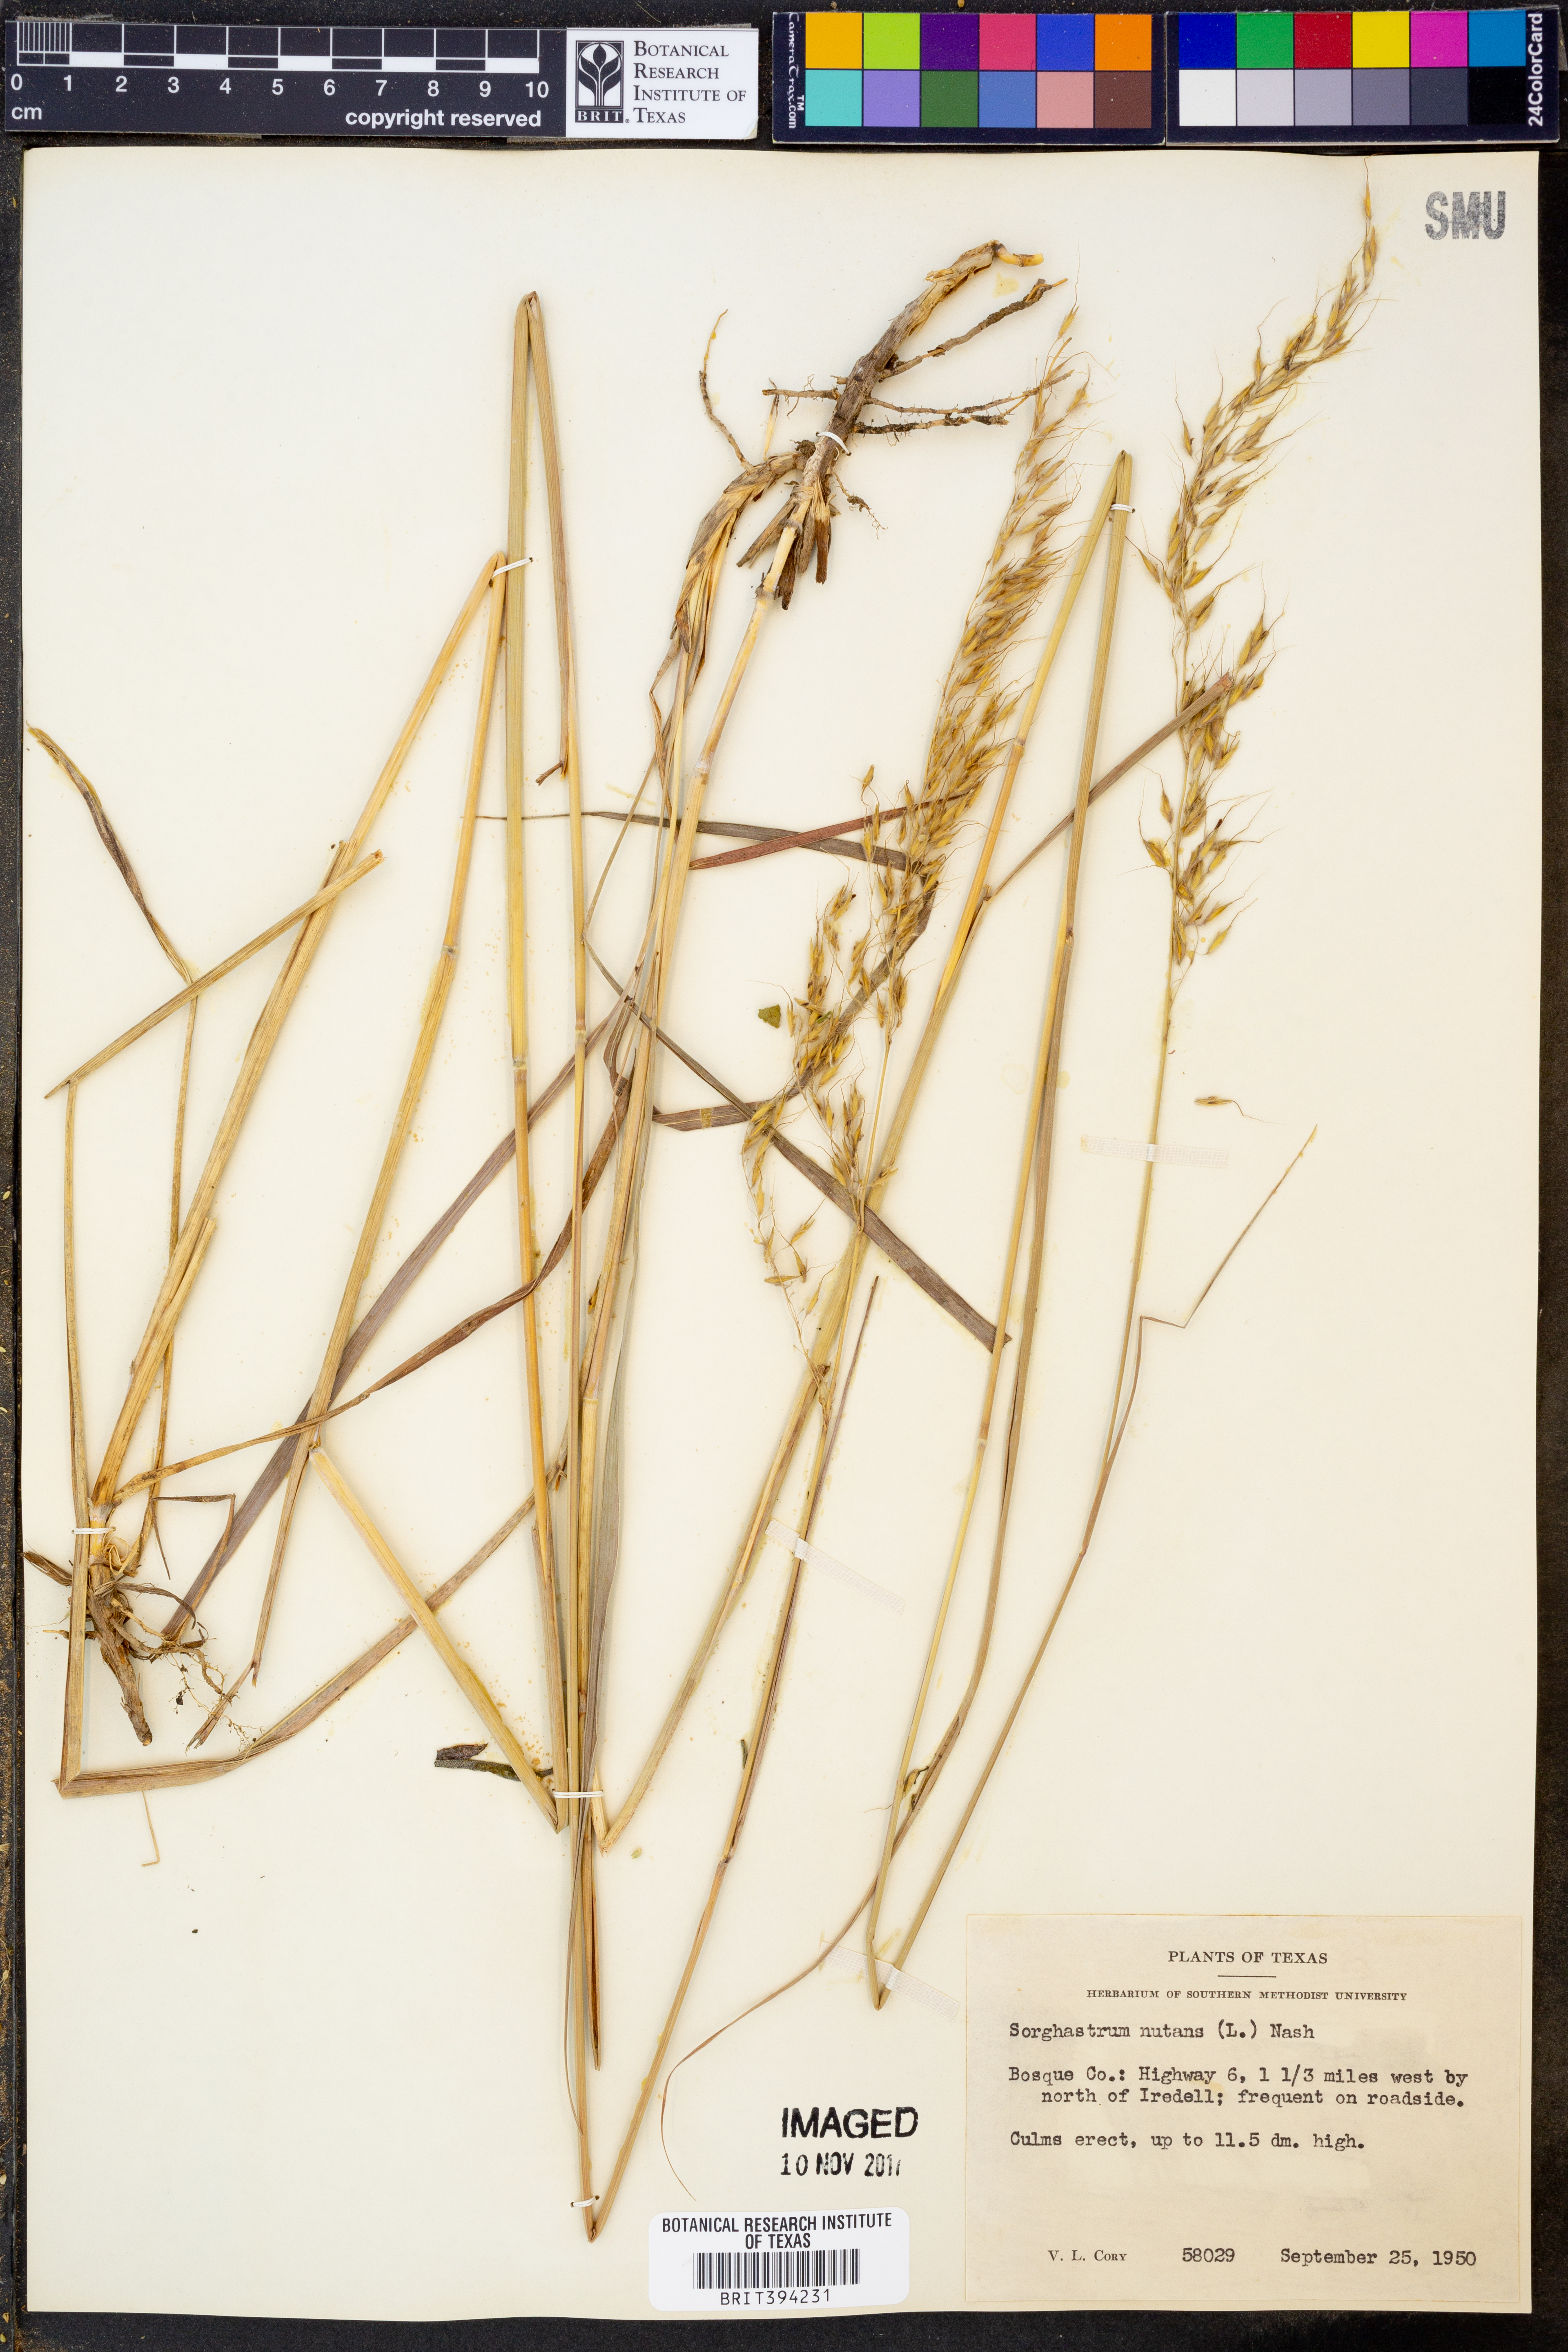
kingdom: Plantae
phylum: Tracheophyta
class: Liliopsida
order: Poales
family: Poaceae
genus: Sorghastrum
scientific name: Sorghastrum nutans
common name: Indian grass
